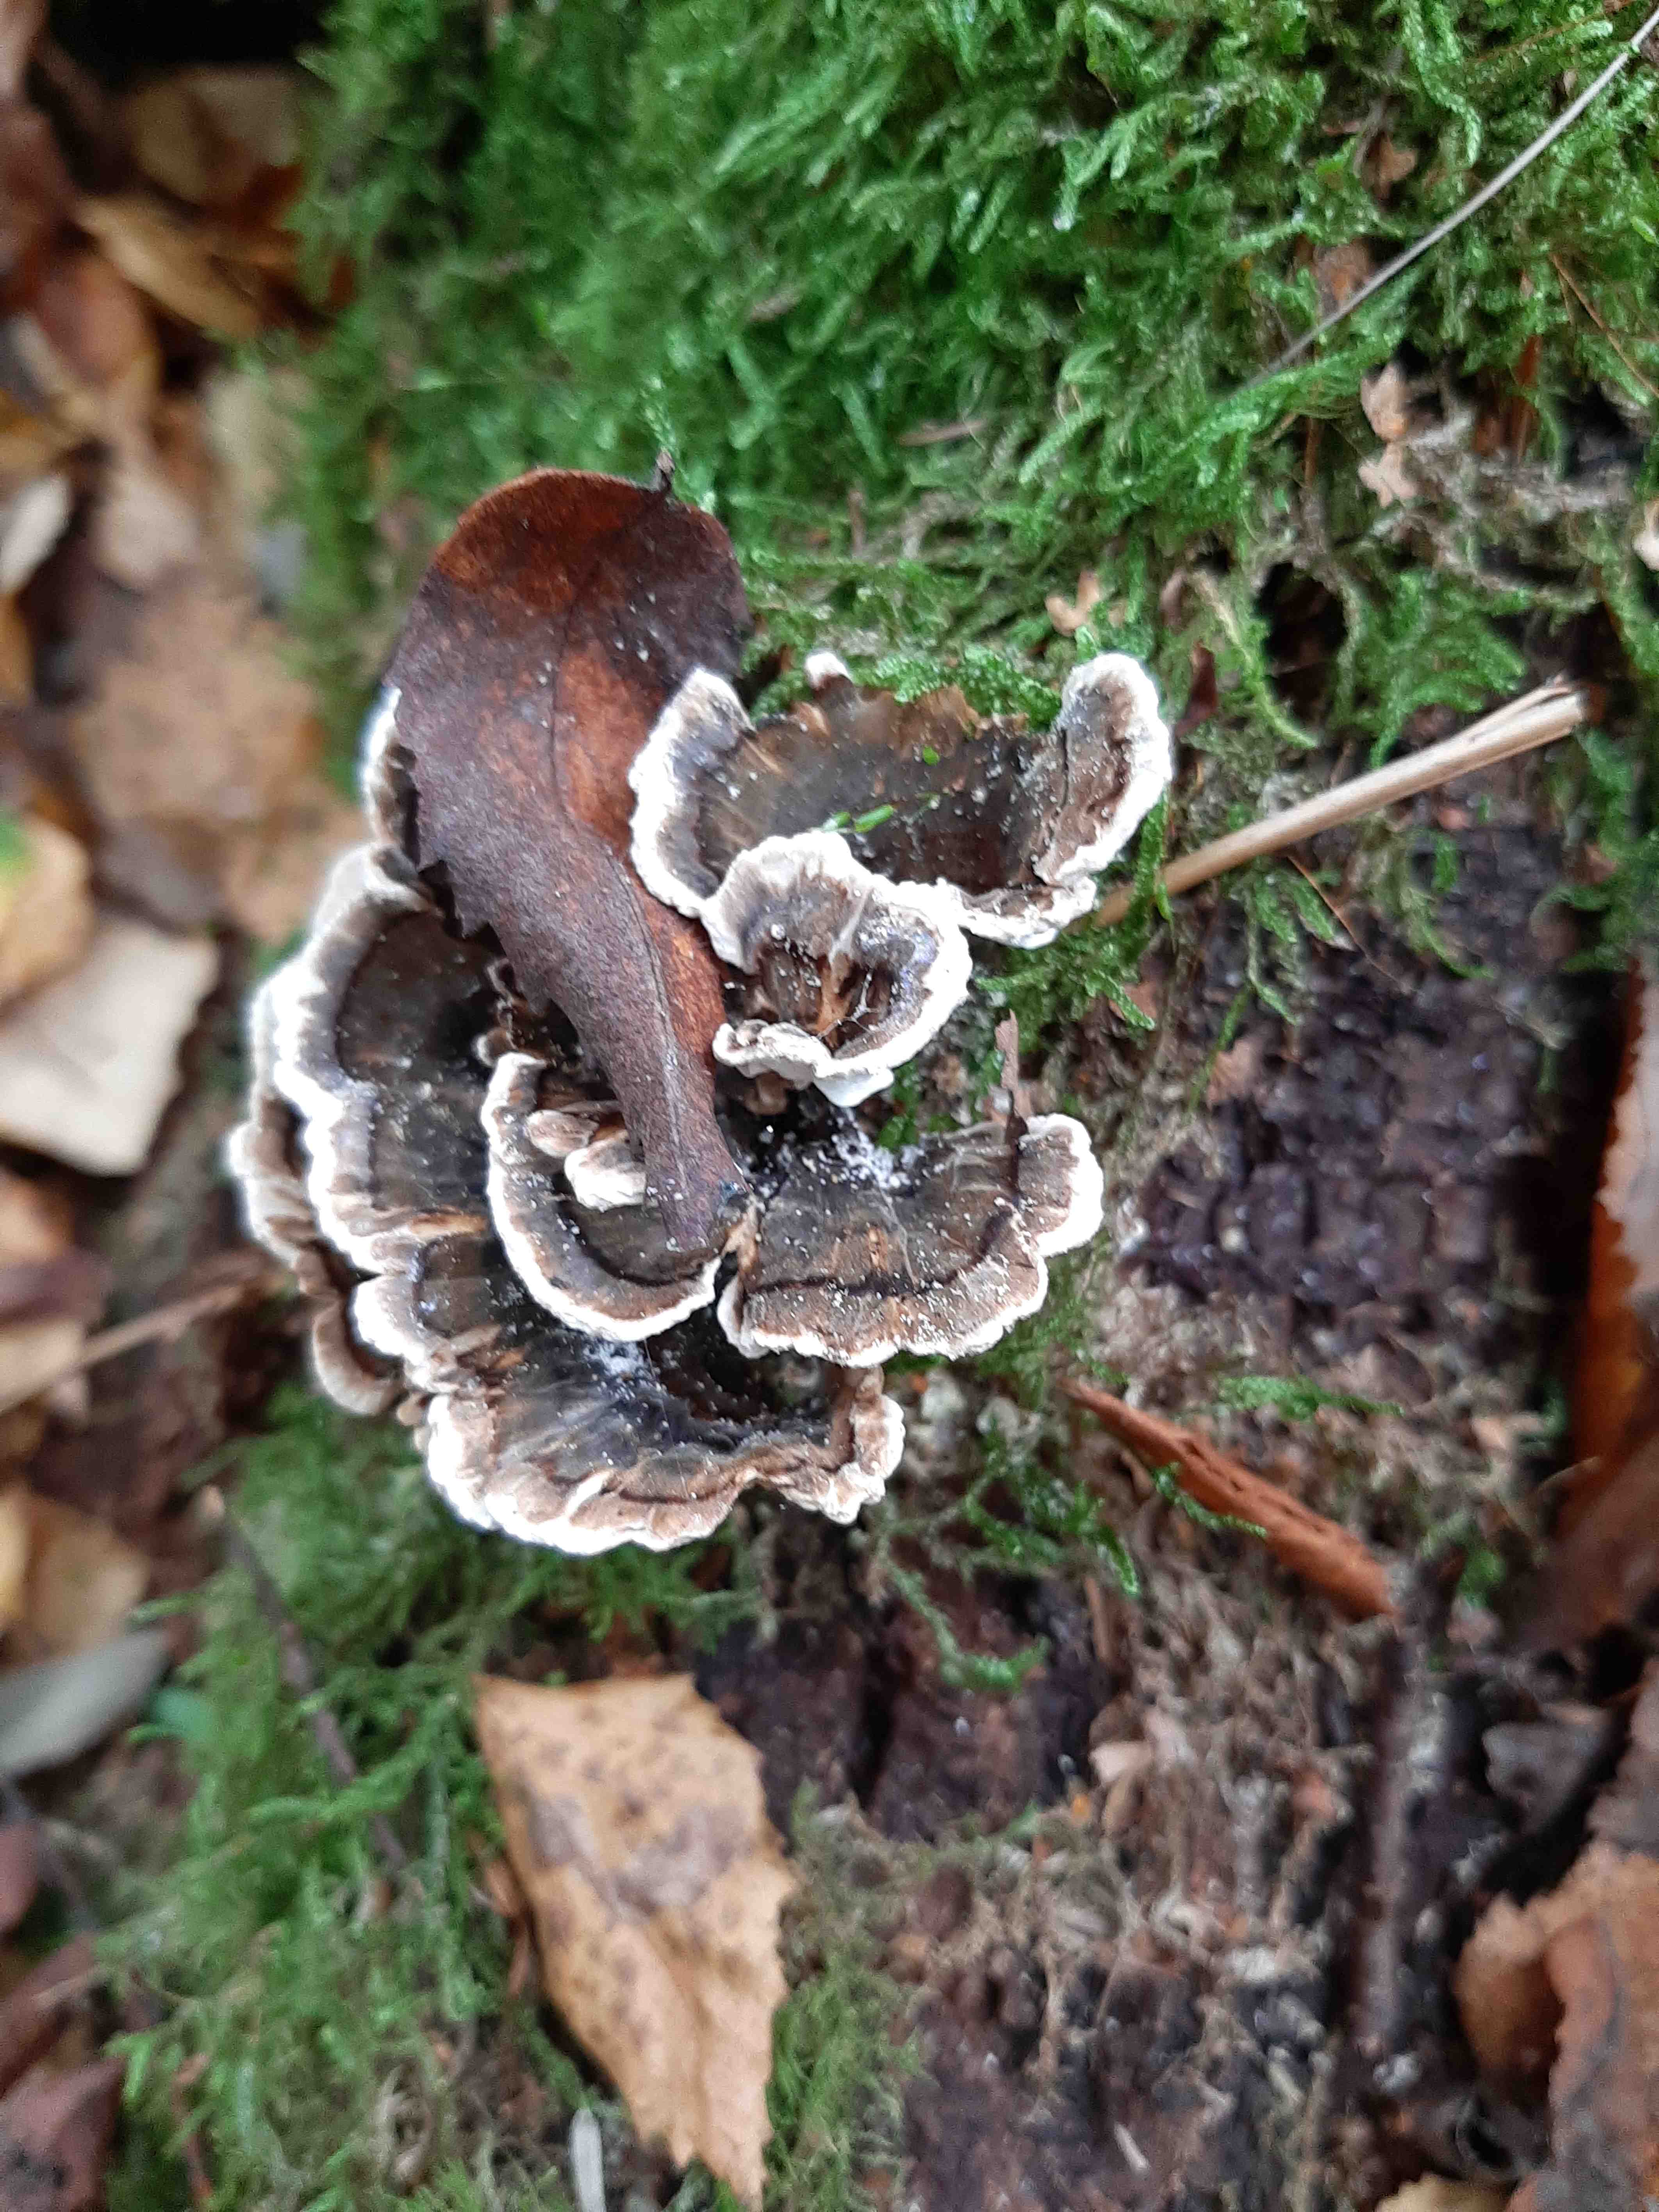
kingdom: Fungi
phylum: Basidiomycota
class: Agaricomycetes
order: Polyporales
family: Polyporaceae
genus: Trametes
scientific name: Trametes versicolor
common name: broget læderporesvamp
